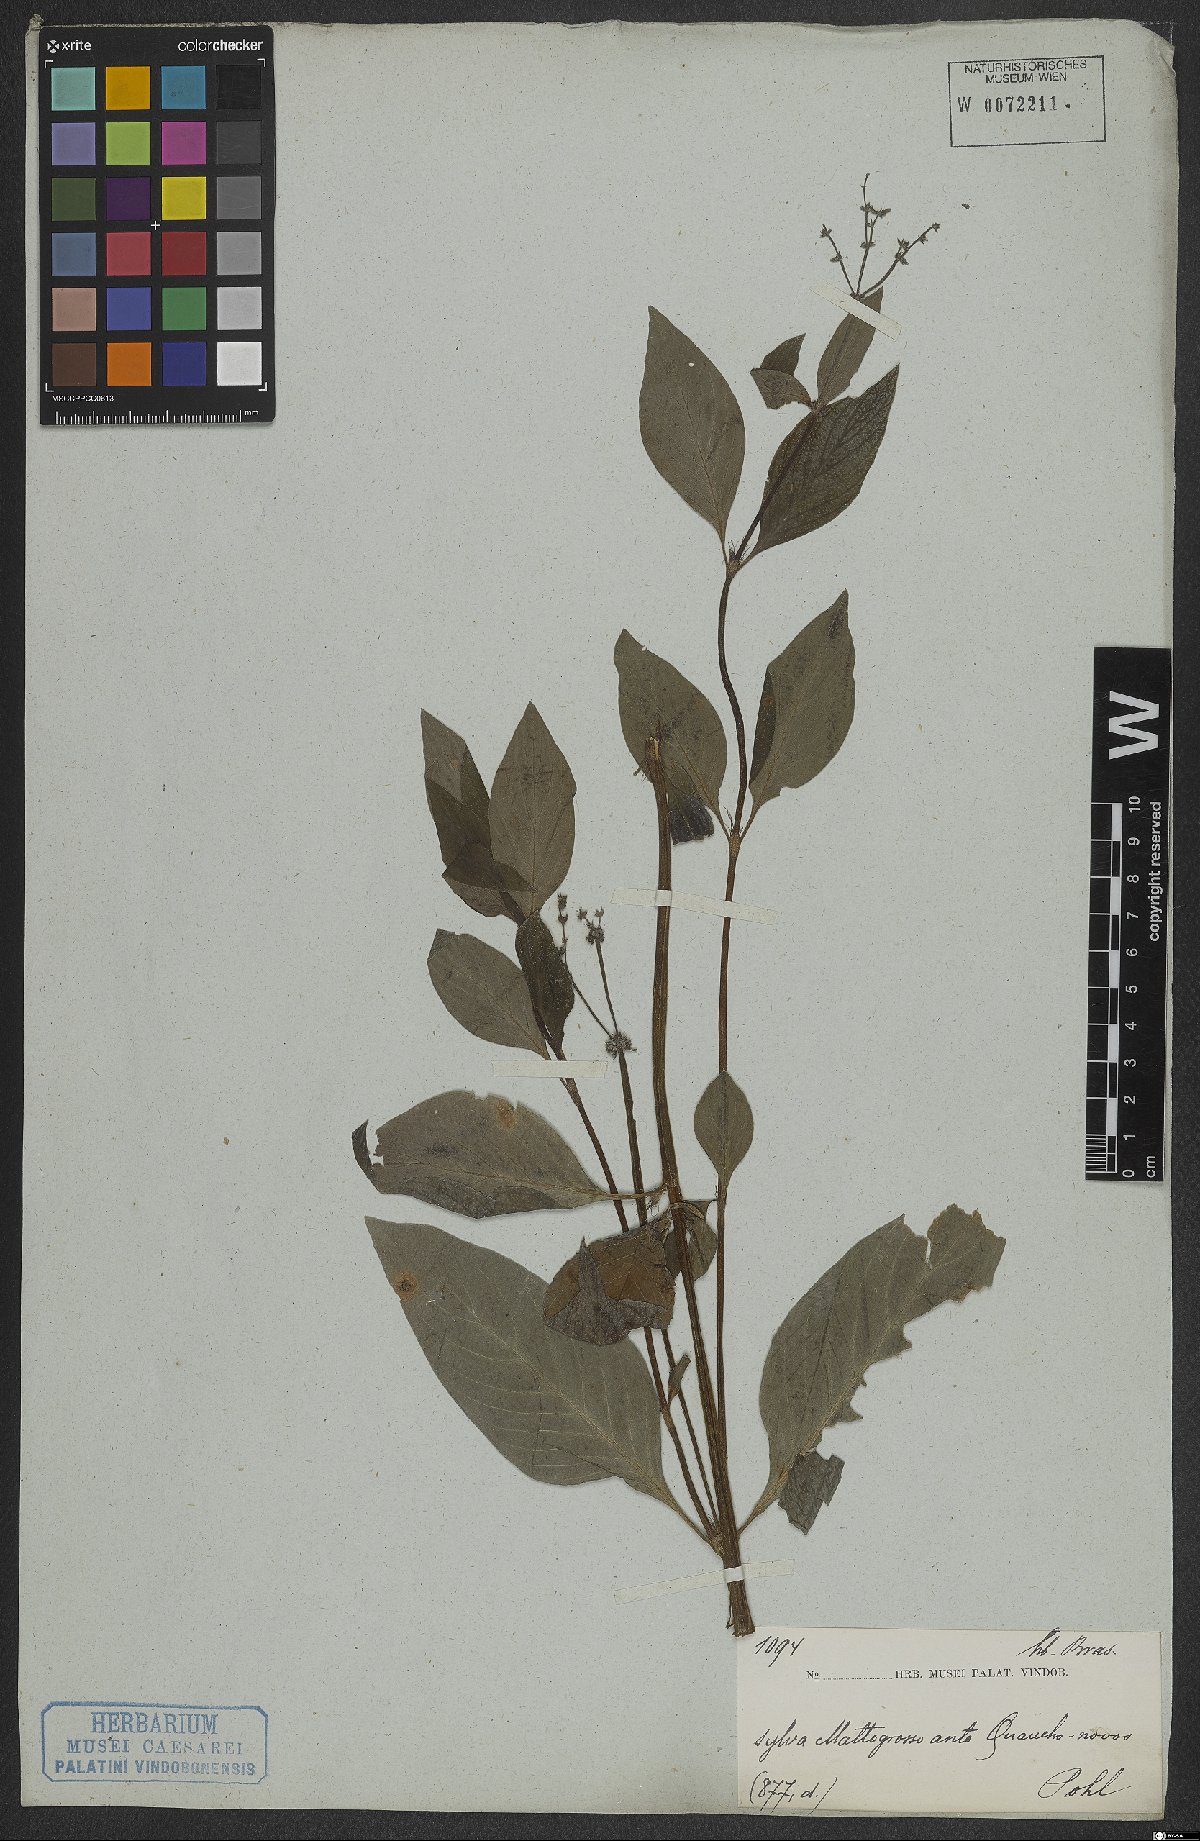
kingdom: Plantae
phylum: Tracheophyta
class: Magnoliopsida
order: Gentianales
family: Rubiaceae
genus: Galianthe
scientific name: Galianthe hispidula
